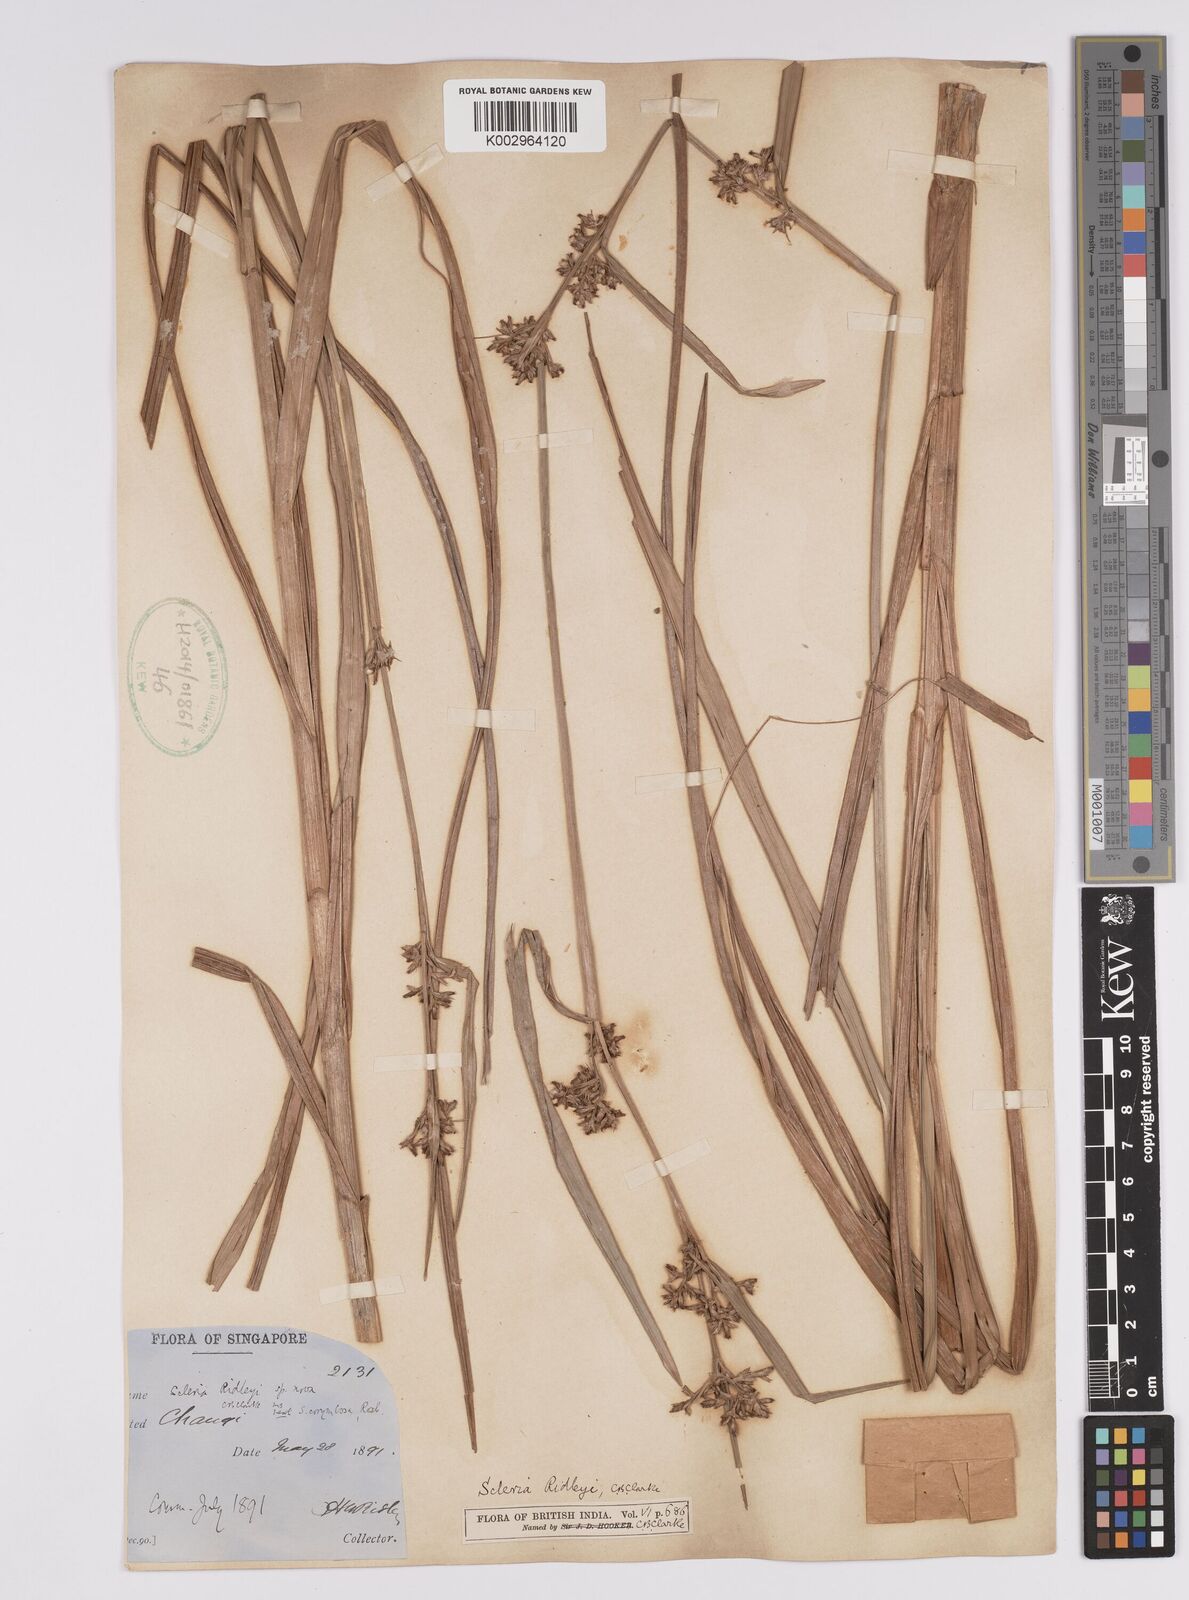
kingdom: Plantae
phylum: Tracheophyta
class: Liliopsida
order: Poales
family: Cyperaceae
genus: Scleria
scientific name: Scleria corymbosa
